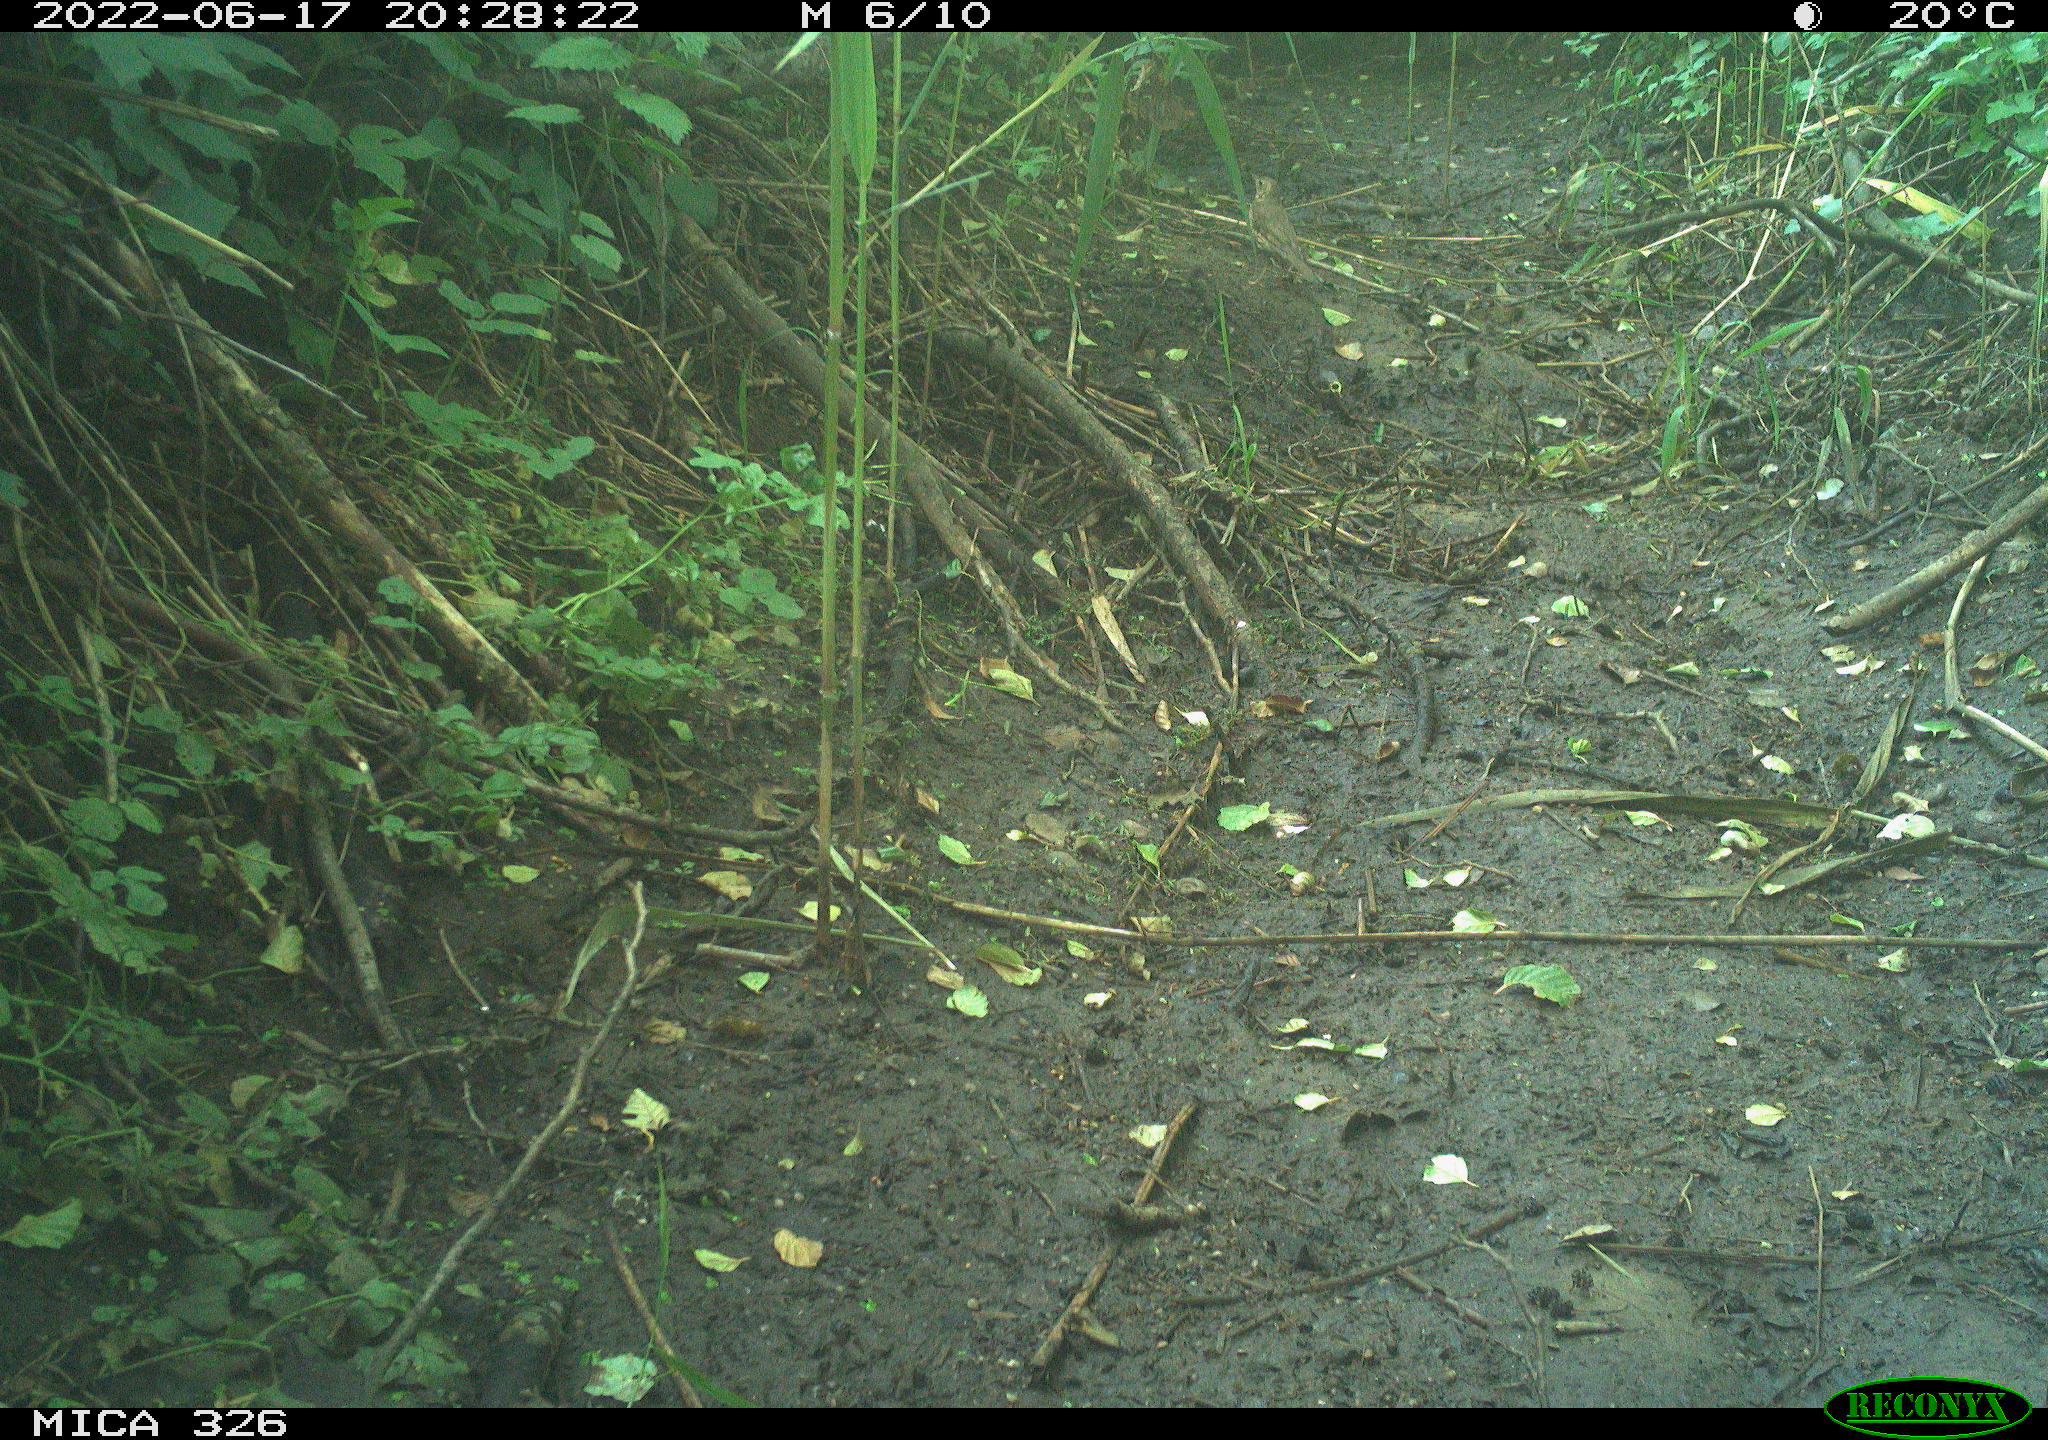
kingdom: Animalia
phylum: Chordata
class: Aves
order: Passeriformes
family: Turdidae
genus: Turdus
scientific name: Turdus
